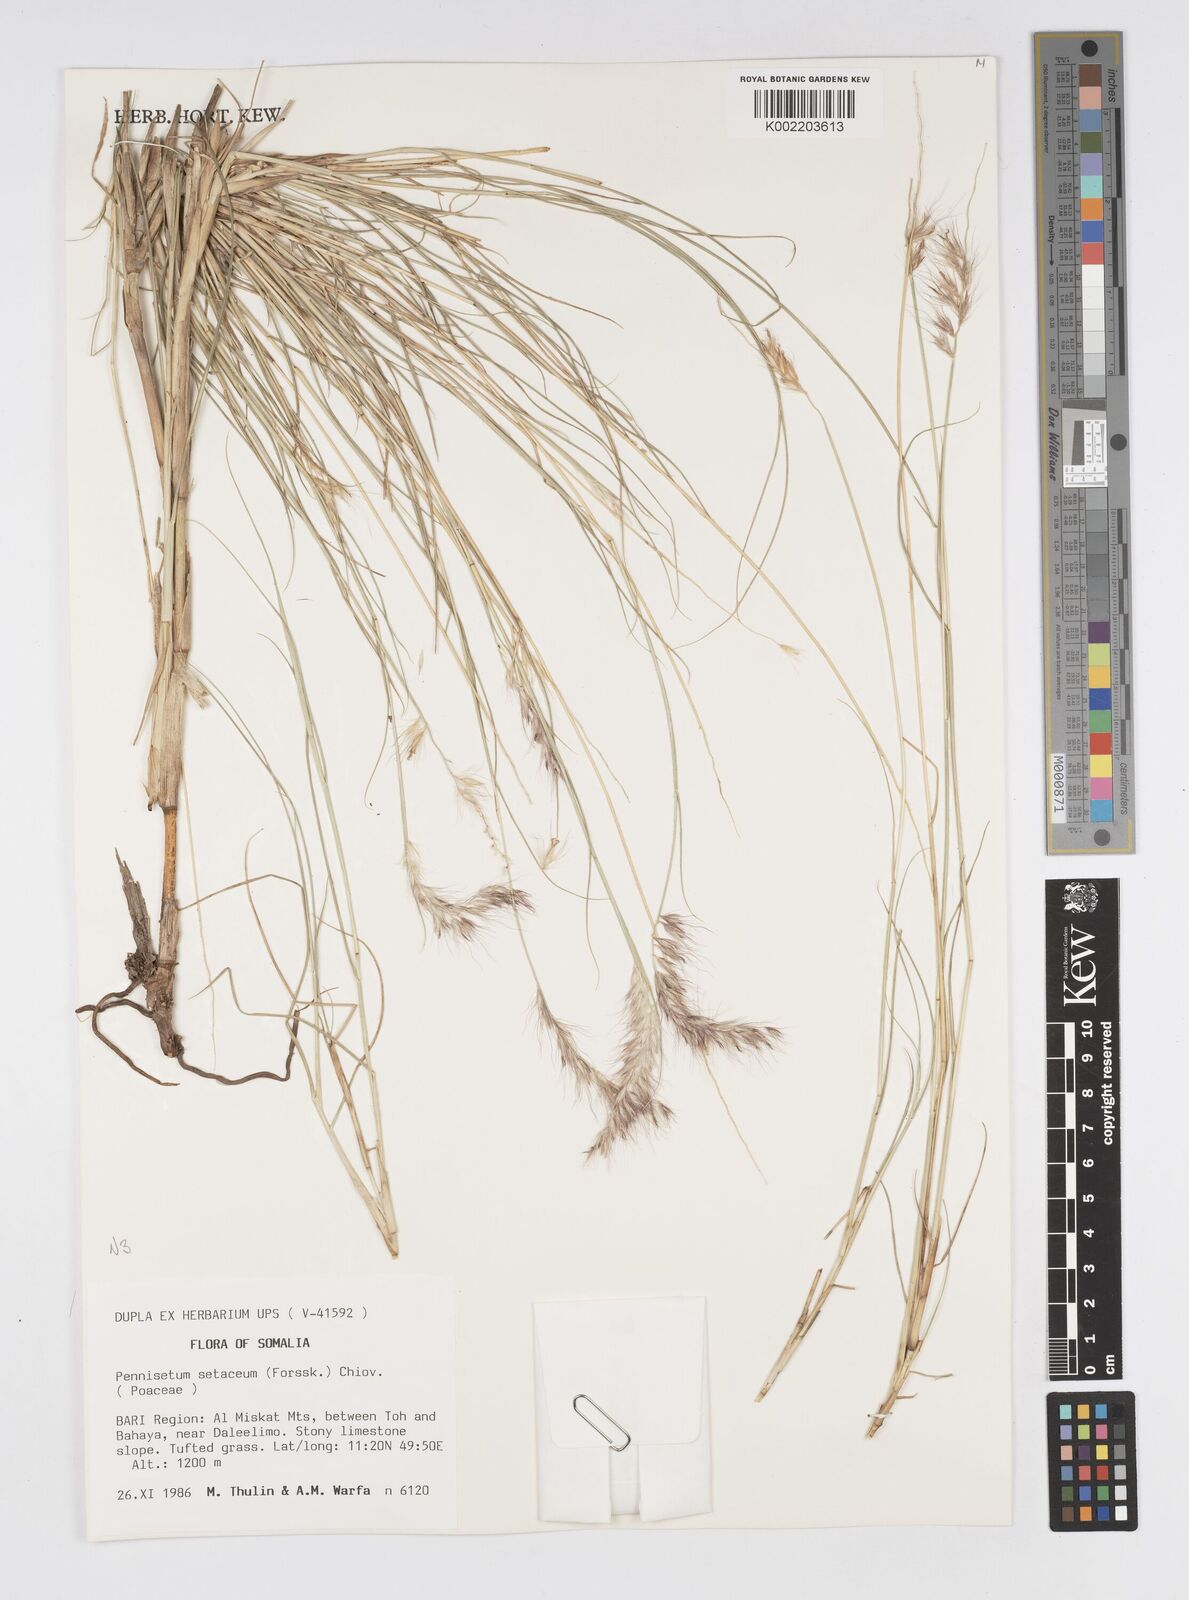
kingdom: Plantae
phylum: Tracheophyta
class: Liliopsida
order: Poales
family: Poaceae
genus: Cenchrus
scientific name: Cenchrus setaceus
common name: Crimson fountaingrass
